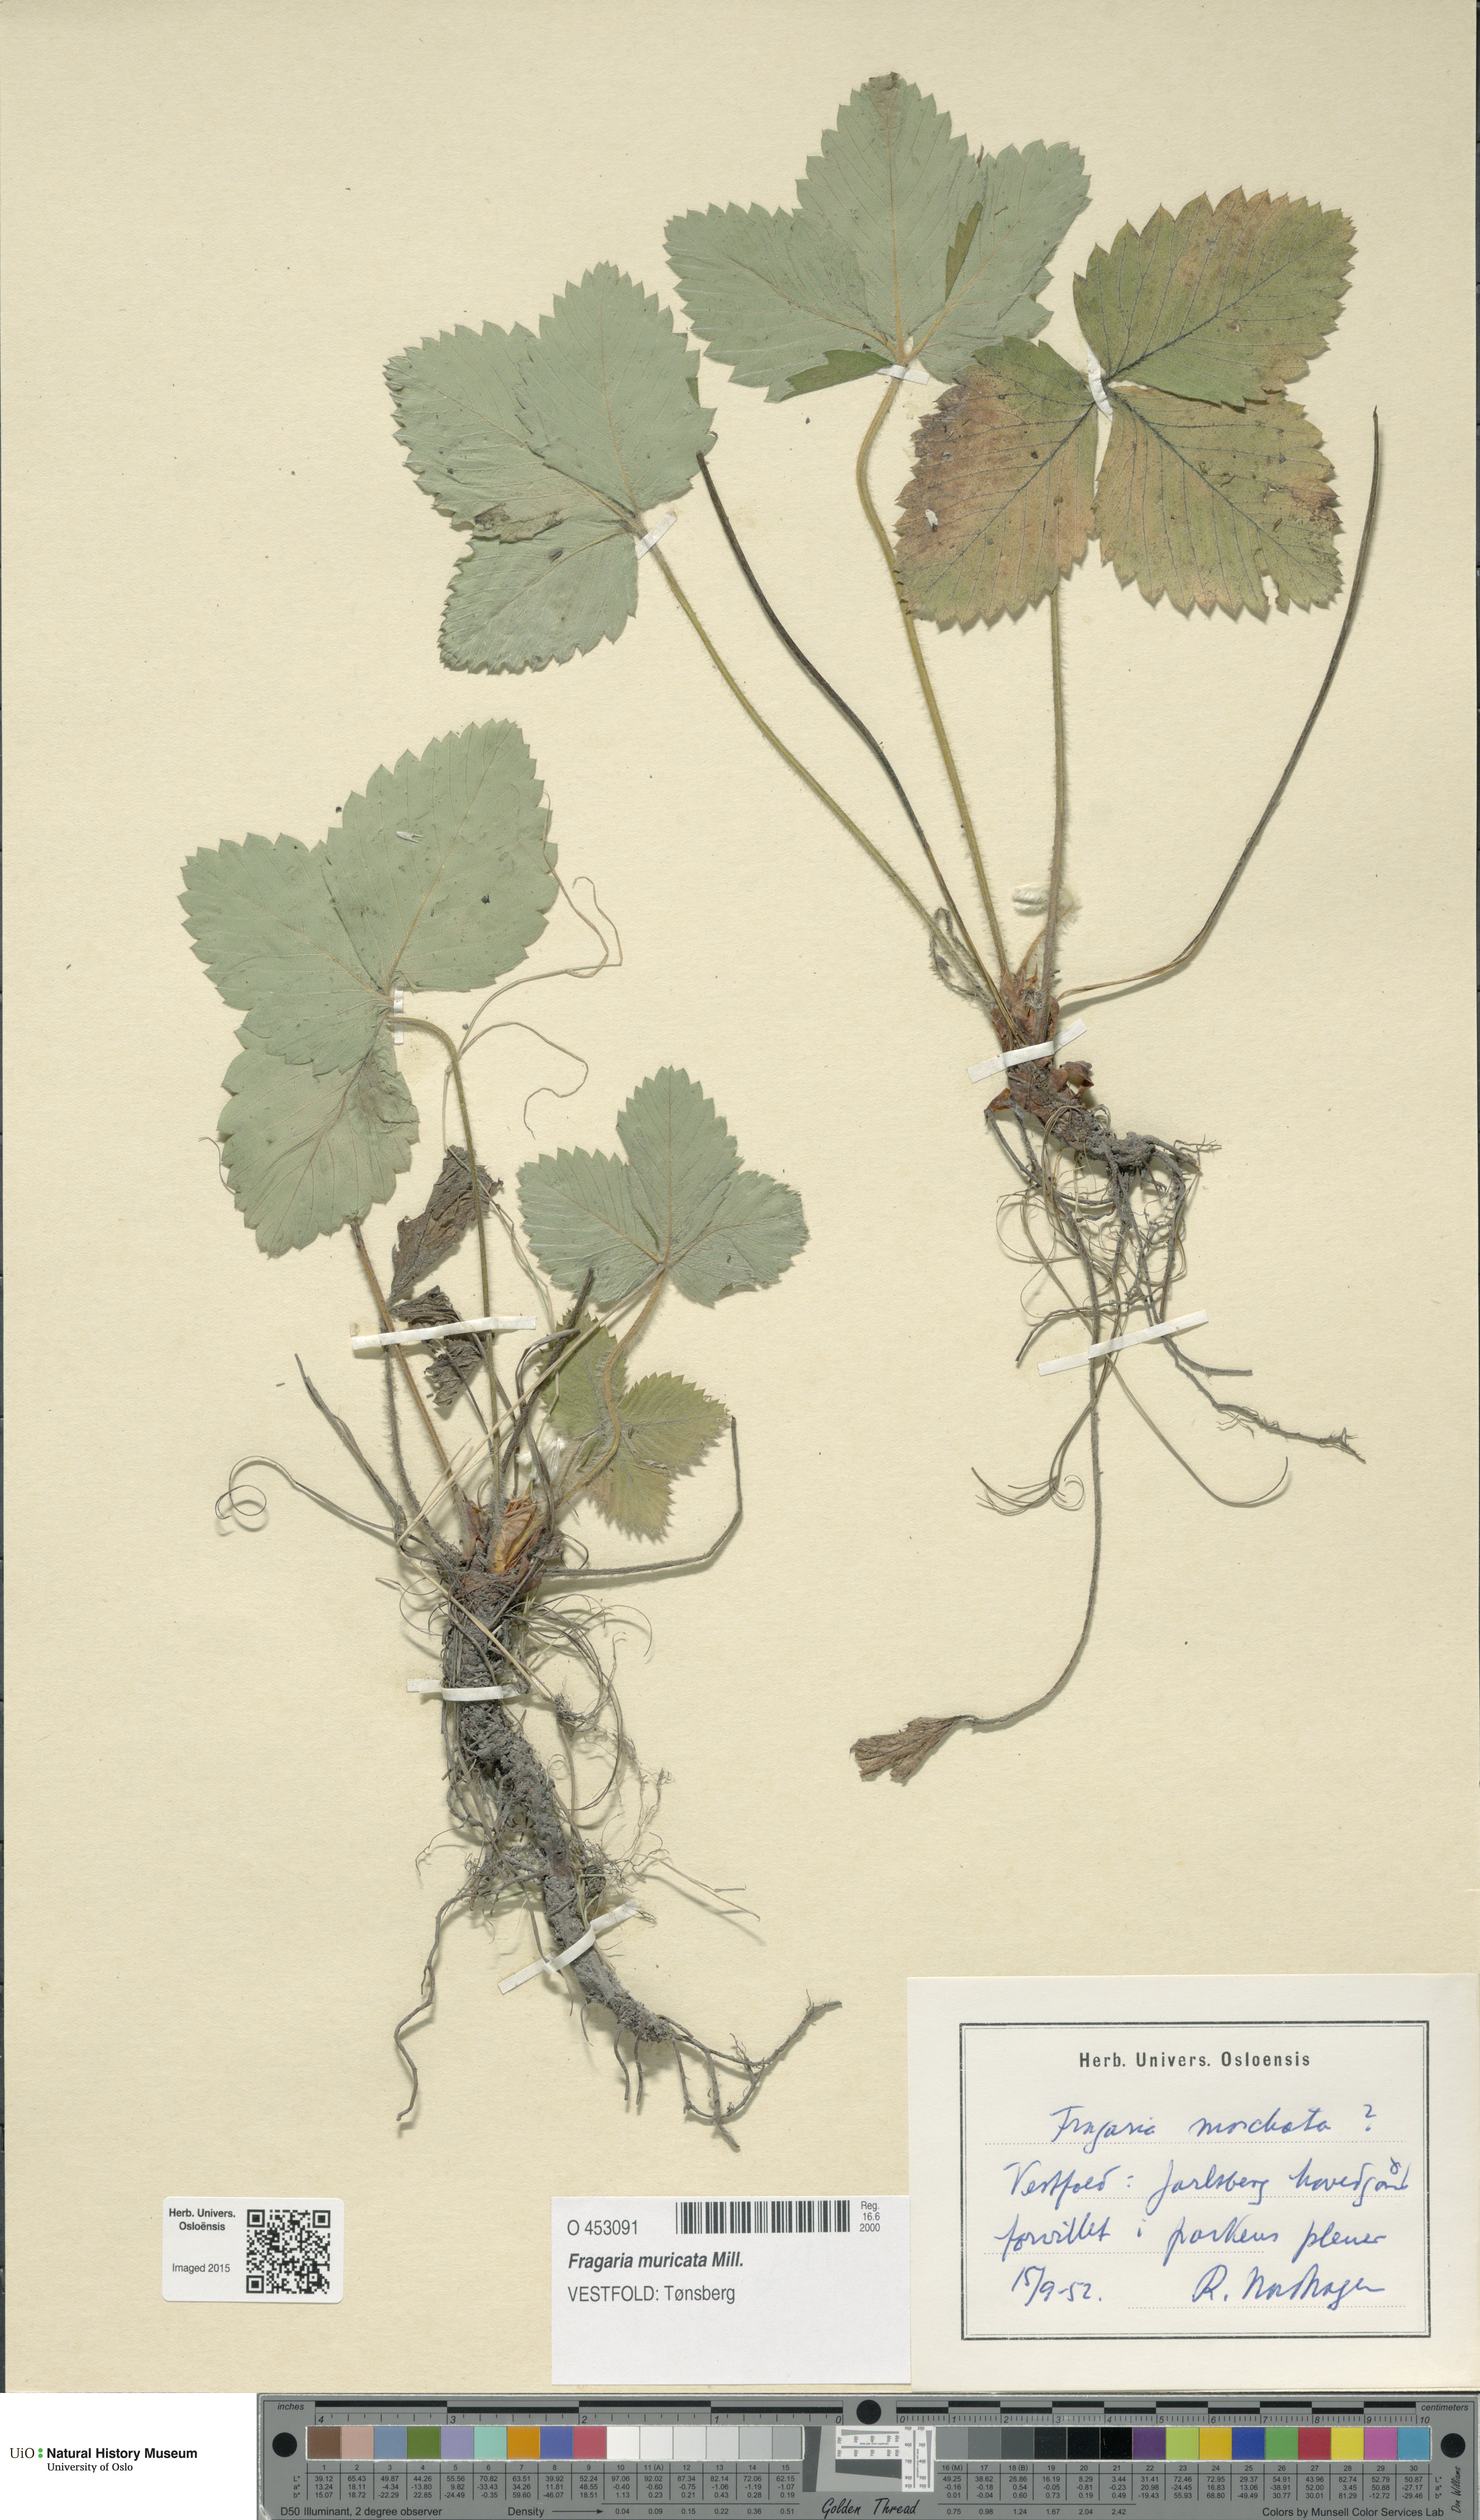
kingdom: Plantae
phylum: Tracheophyta
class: Magnoliopsida
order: Rosales
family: Rosaceae
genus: Fragaria
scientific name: Fragaria moschata
